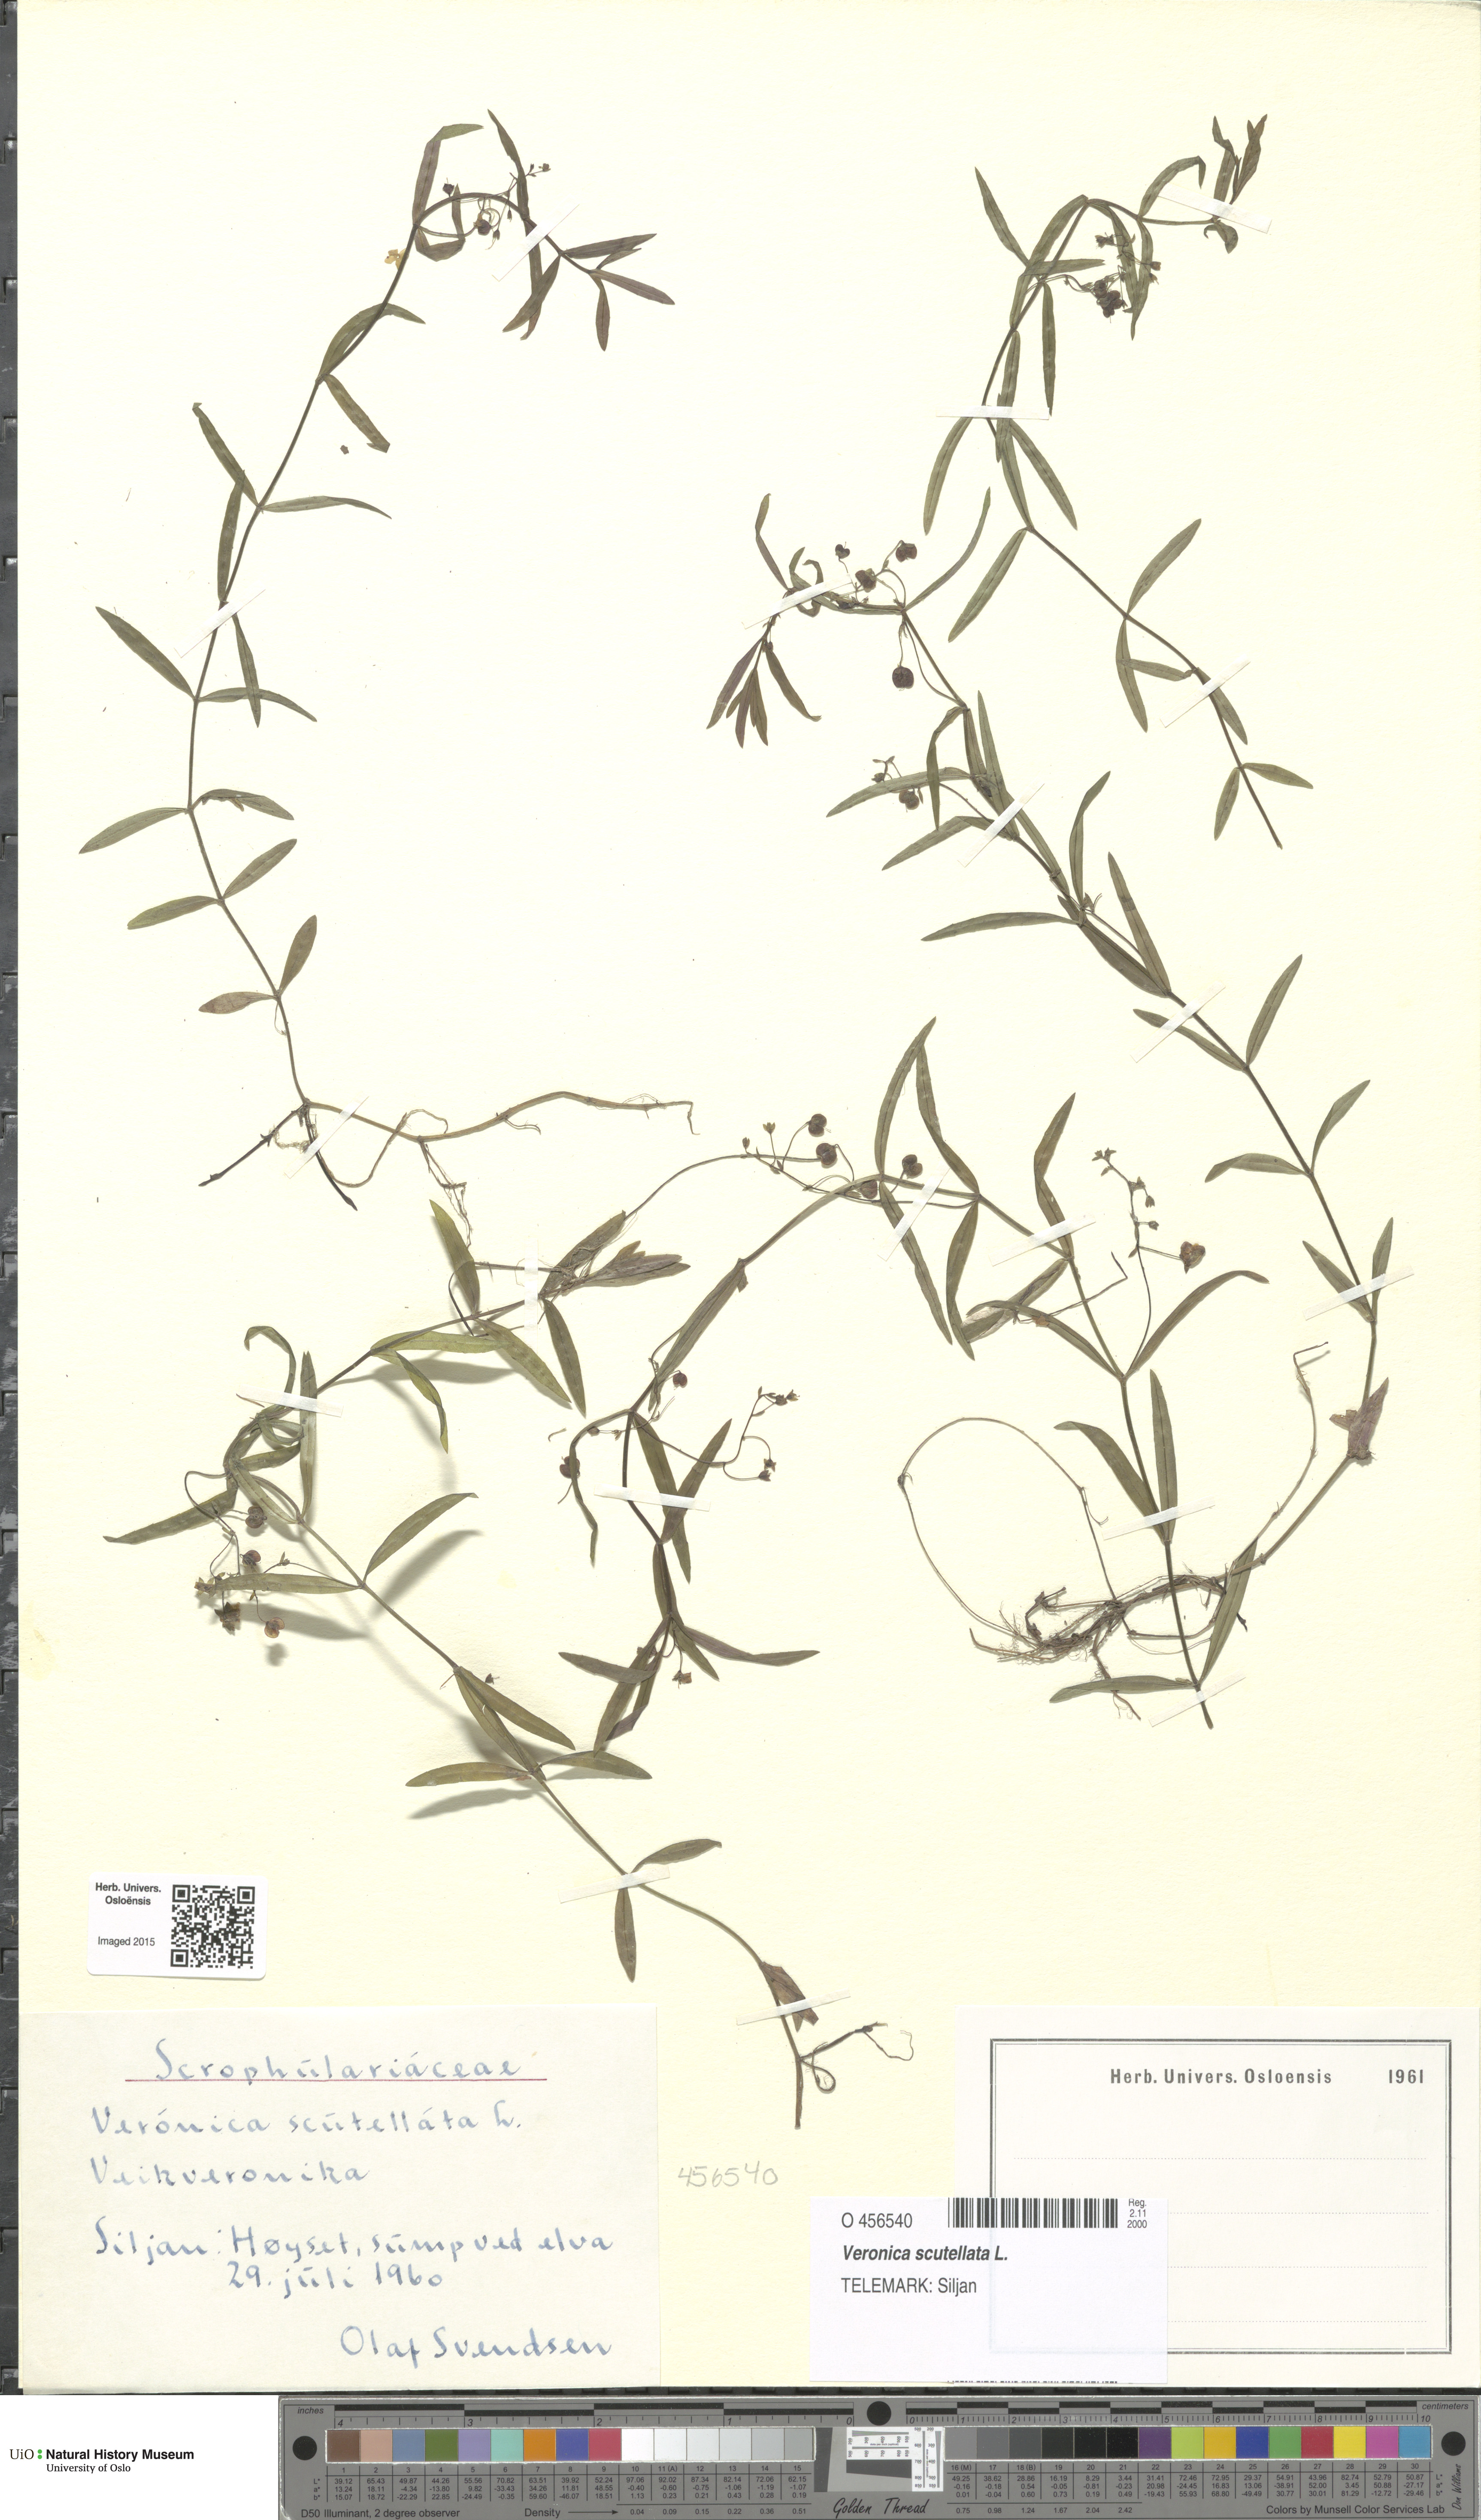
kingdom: Plantae
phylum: Tracheophyta
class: Magnoliopsida
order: Lamiales
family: Plantaginaceae
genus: Veronica
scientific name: Veronica scutellata
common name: Marsh speedwell
